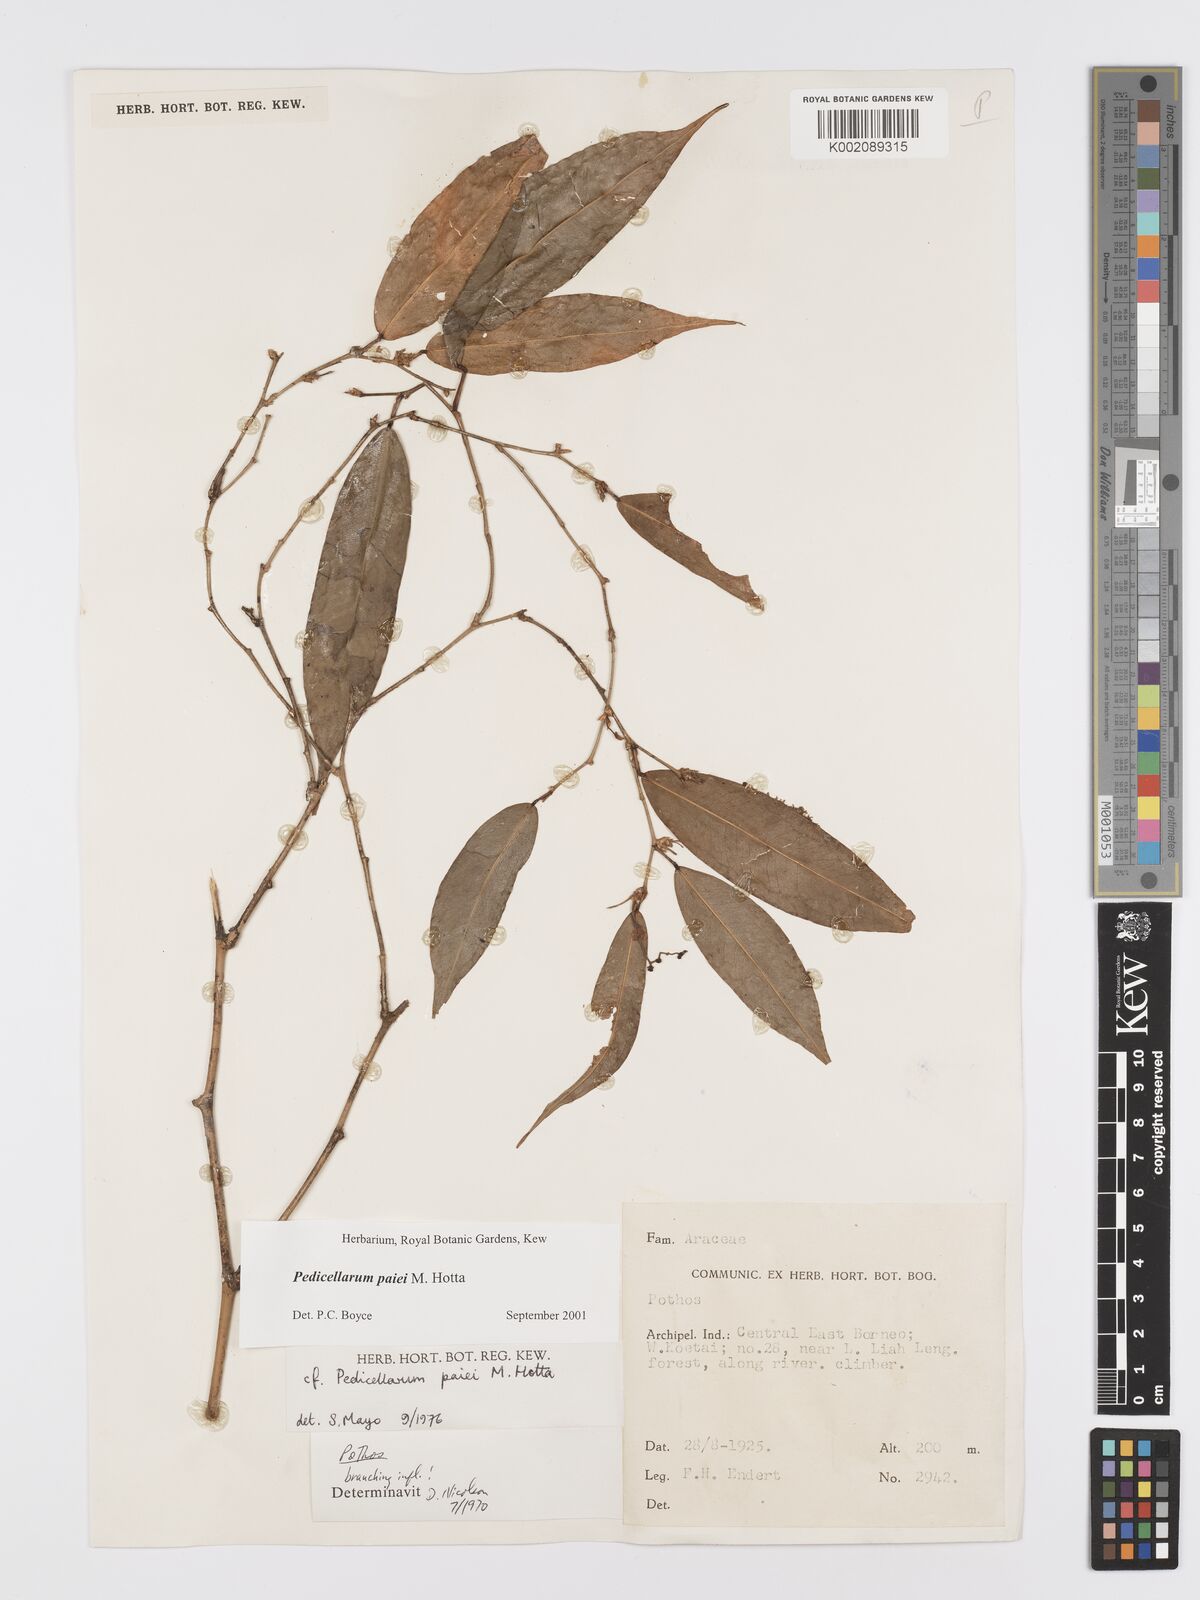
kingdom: Plantae
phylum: Tracheophyta
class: Liliopsida
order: Alismatales
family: Araceae
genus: Pothos
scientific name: Pothos paiei
